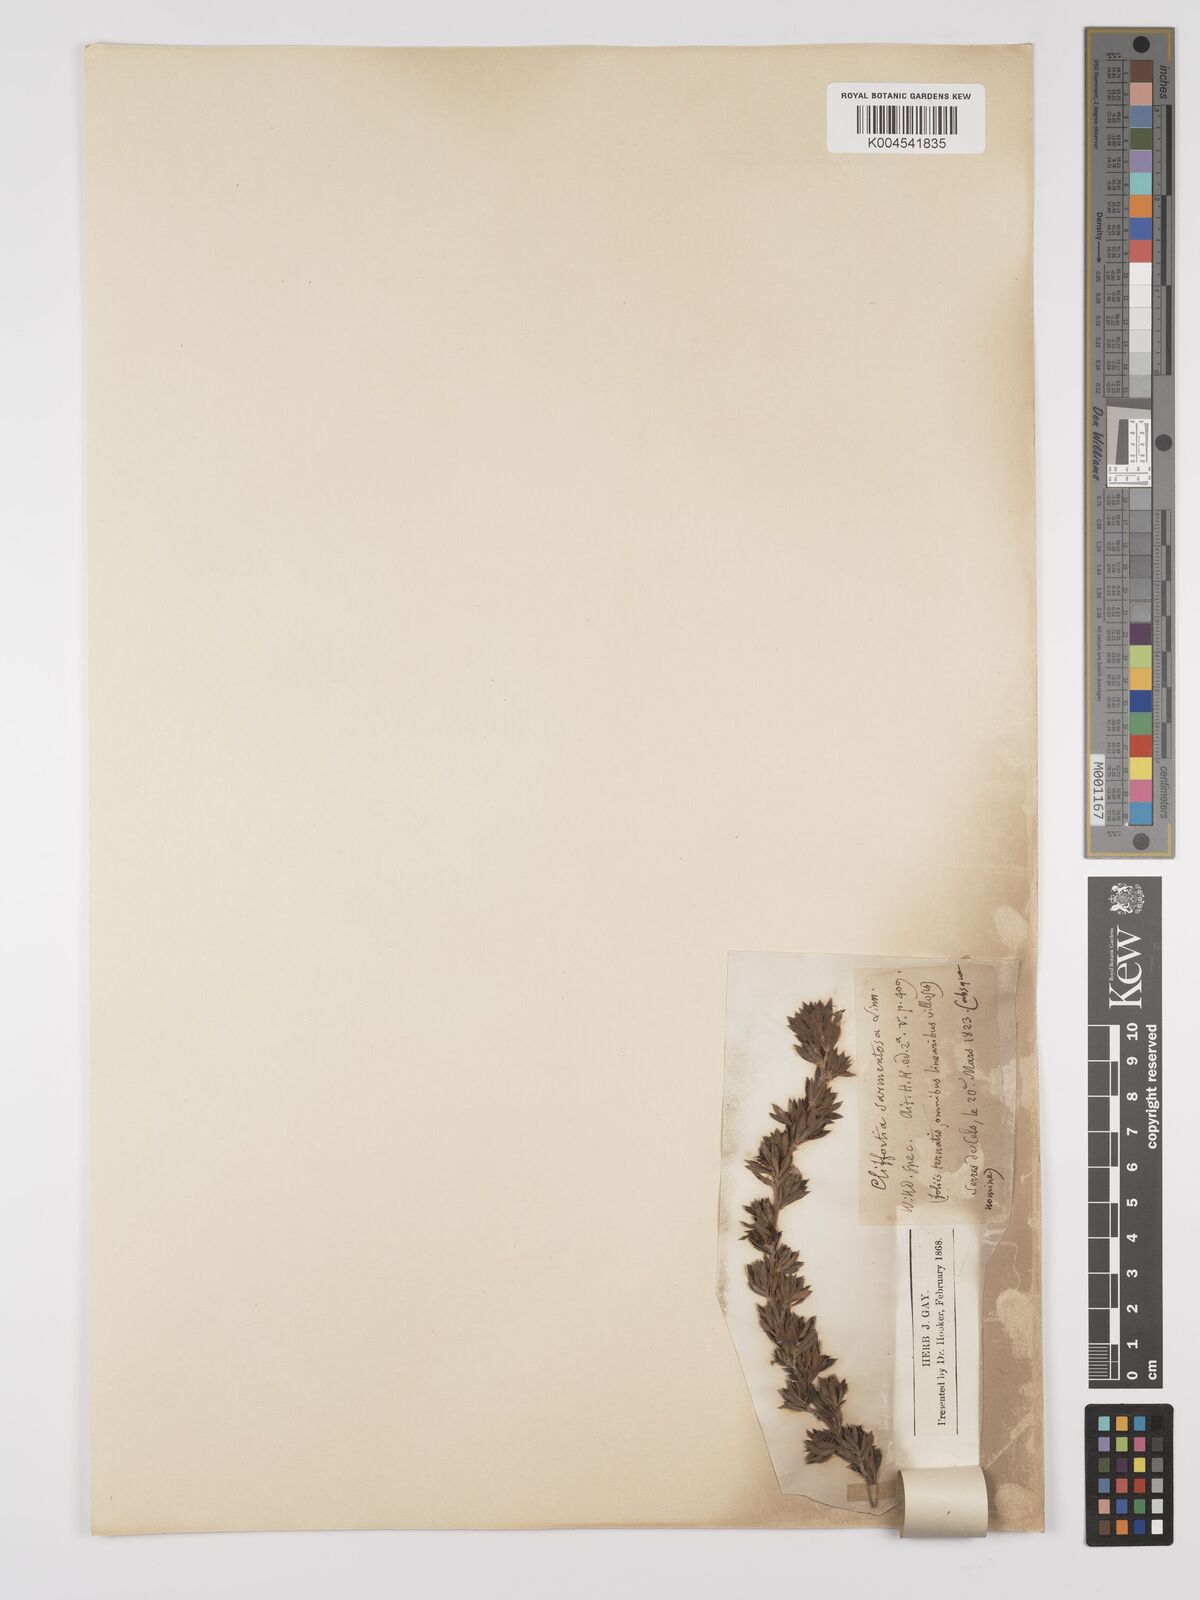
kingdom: Plantae
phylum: Tracheophyta
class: Magnoliopsida
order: Rosales
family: Rosaceae
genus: Cliffortia
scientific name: Cliffortia polygonifolia
